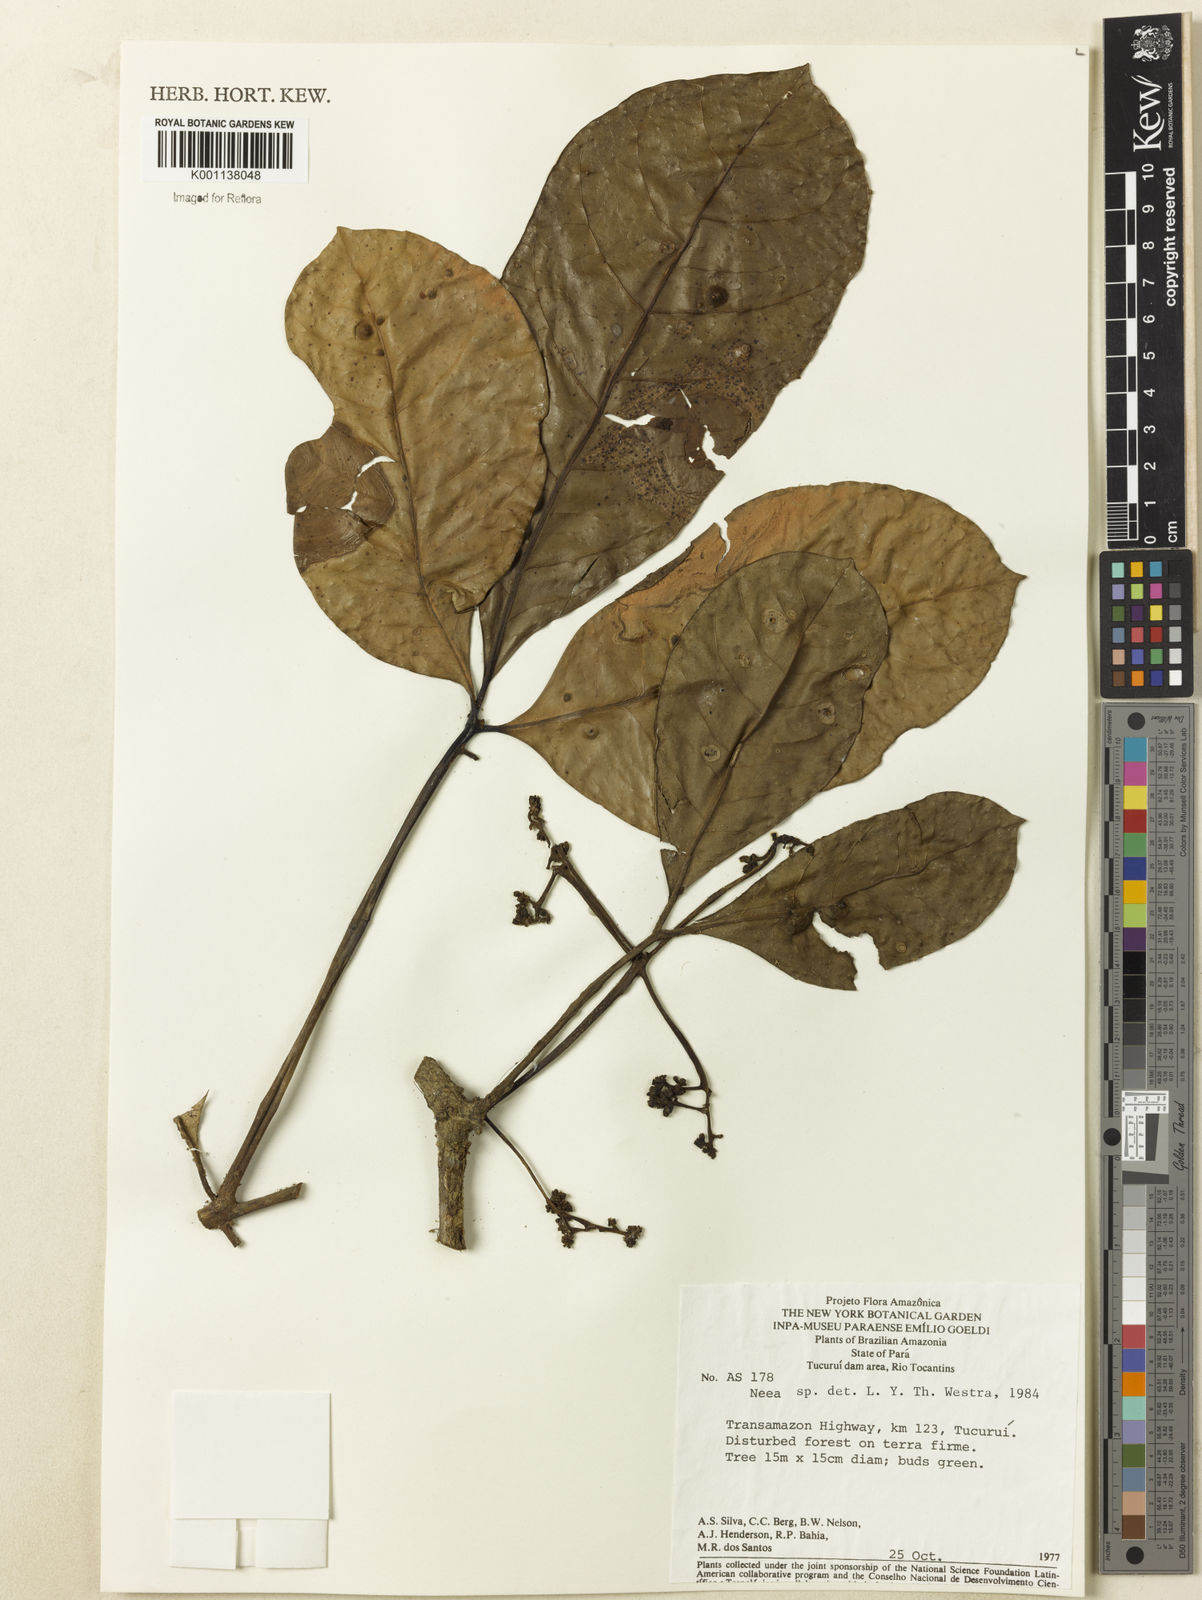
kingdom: Plantae
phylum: Tracheophyta
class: Magnoliopsida
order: Caryophyllales
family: Nyctaginaceae
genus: Neea
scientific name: Neea
